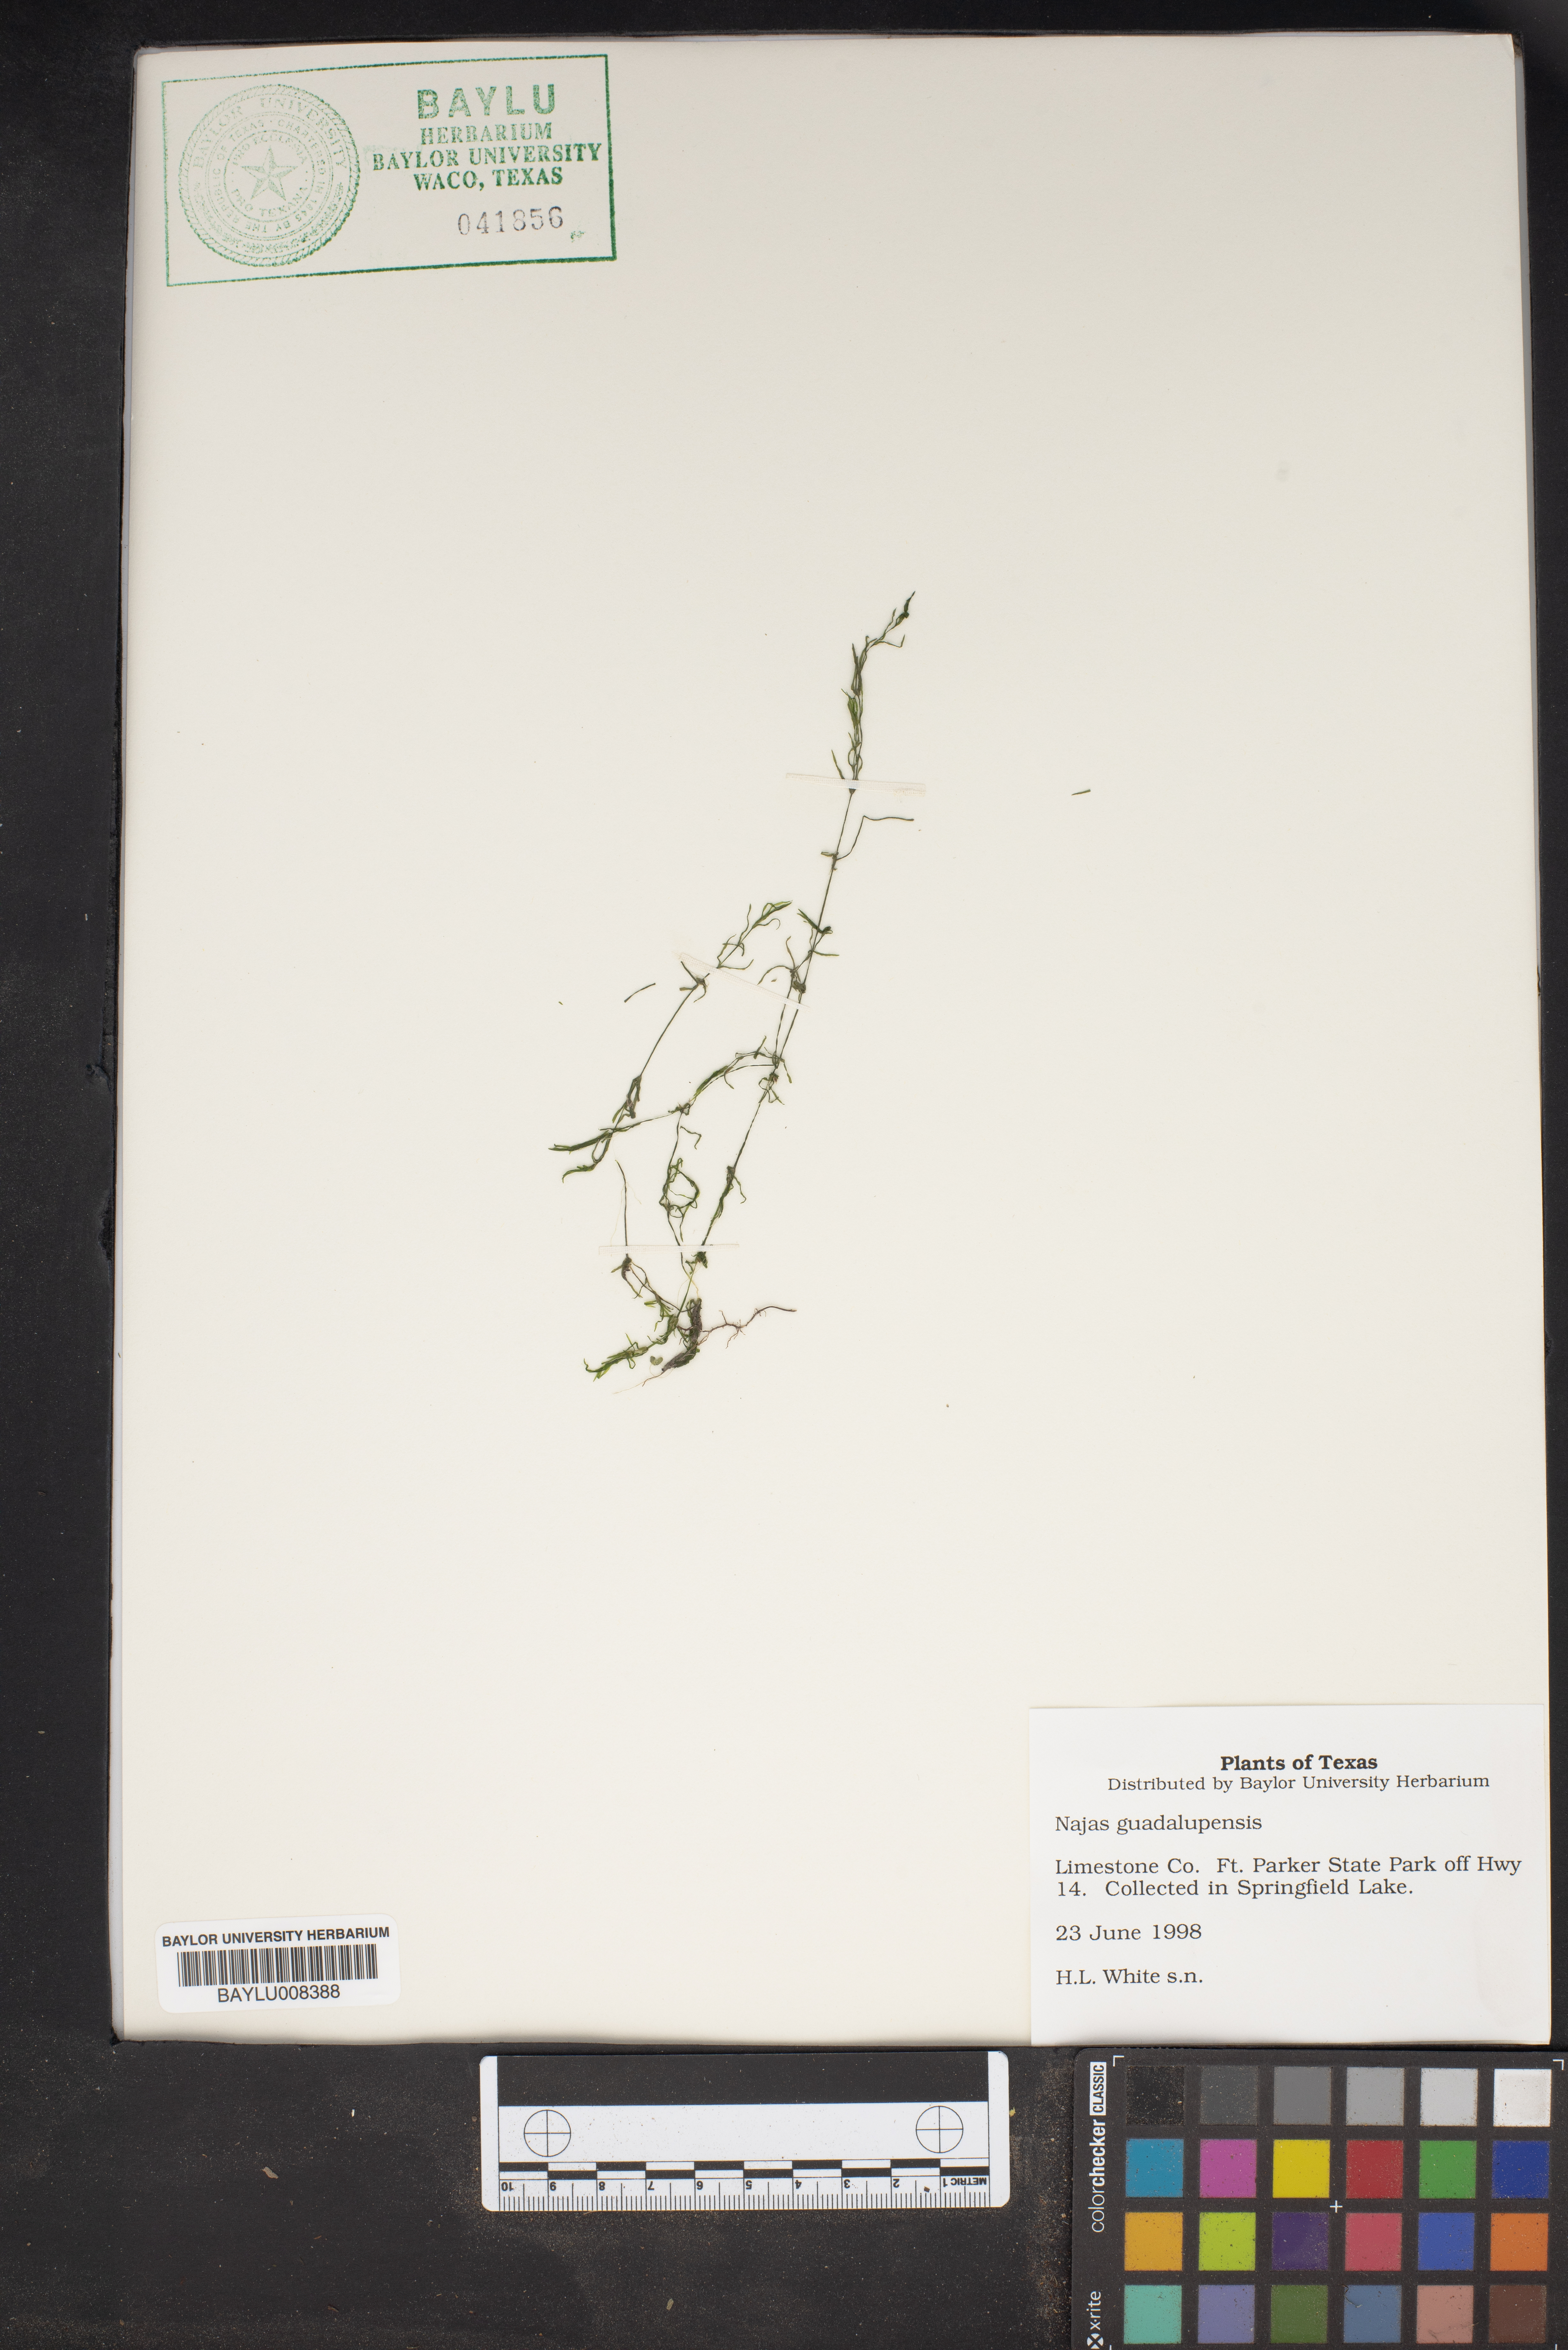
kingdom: Plantae
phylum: Tracheophyta
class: Liliopsida
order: Alismatales
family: Hydrocharitaceae
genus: Najas
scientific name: Najas guadalupensis
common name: Southern naiad
